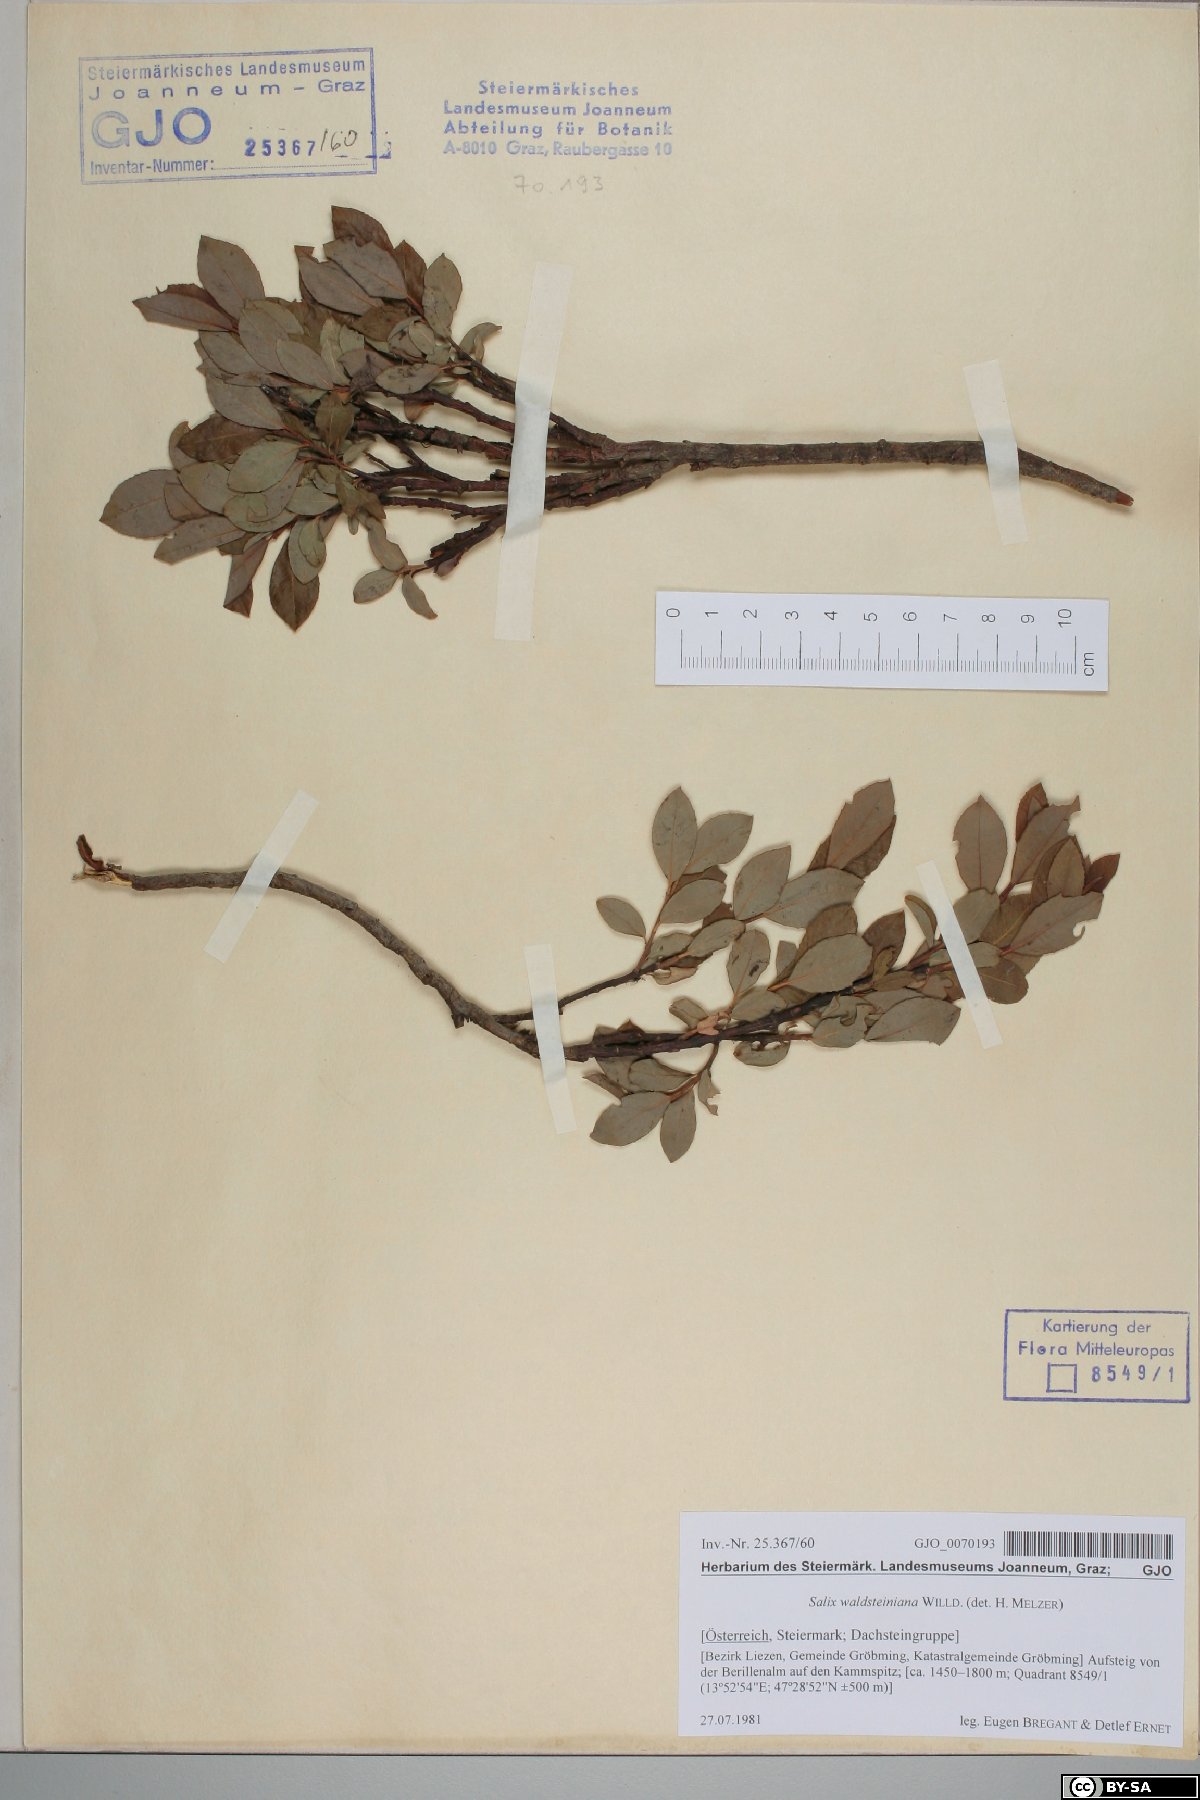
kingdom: Plantae
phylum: Tracheophyta
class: Magnoliopsida
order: Malpighiales
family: Salicaceae
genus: Salix
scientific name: Salix waldsteiniana
